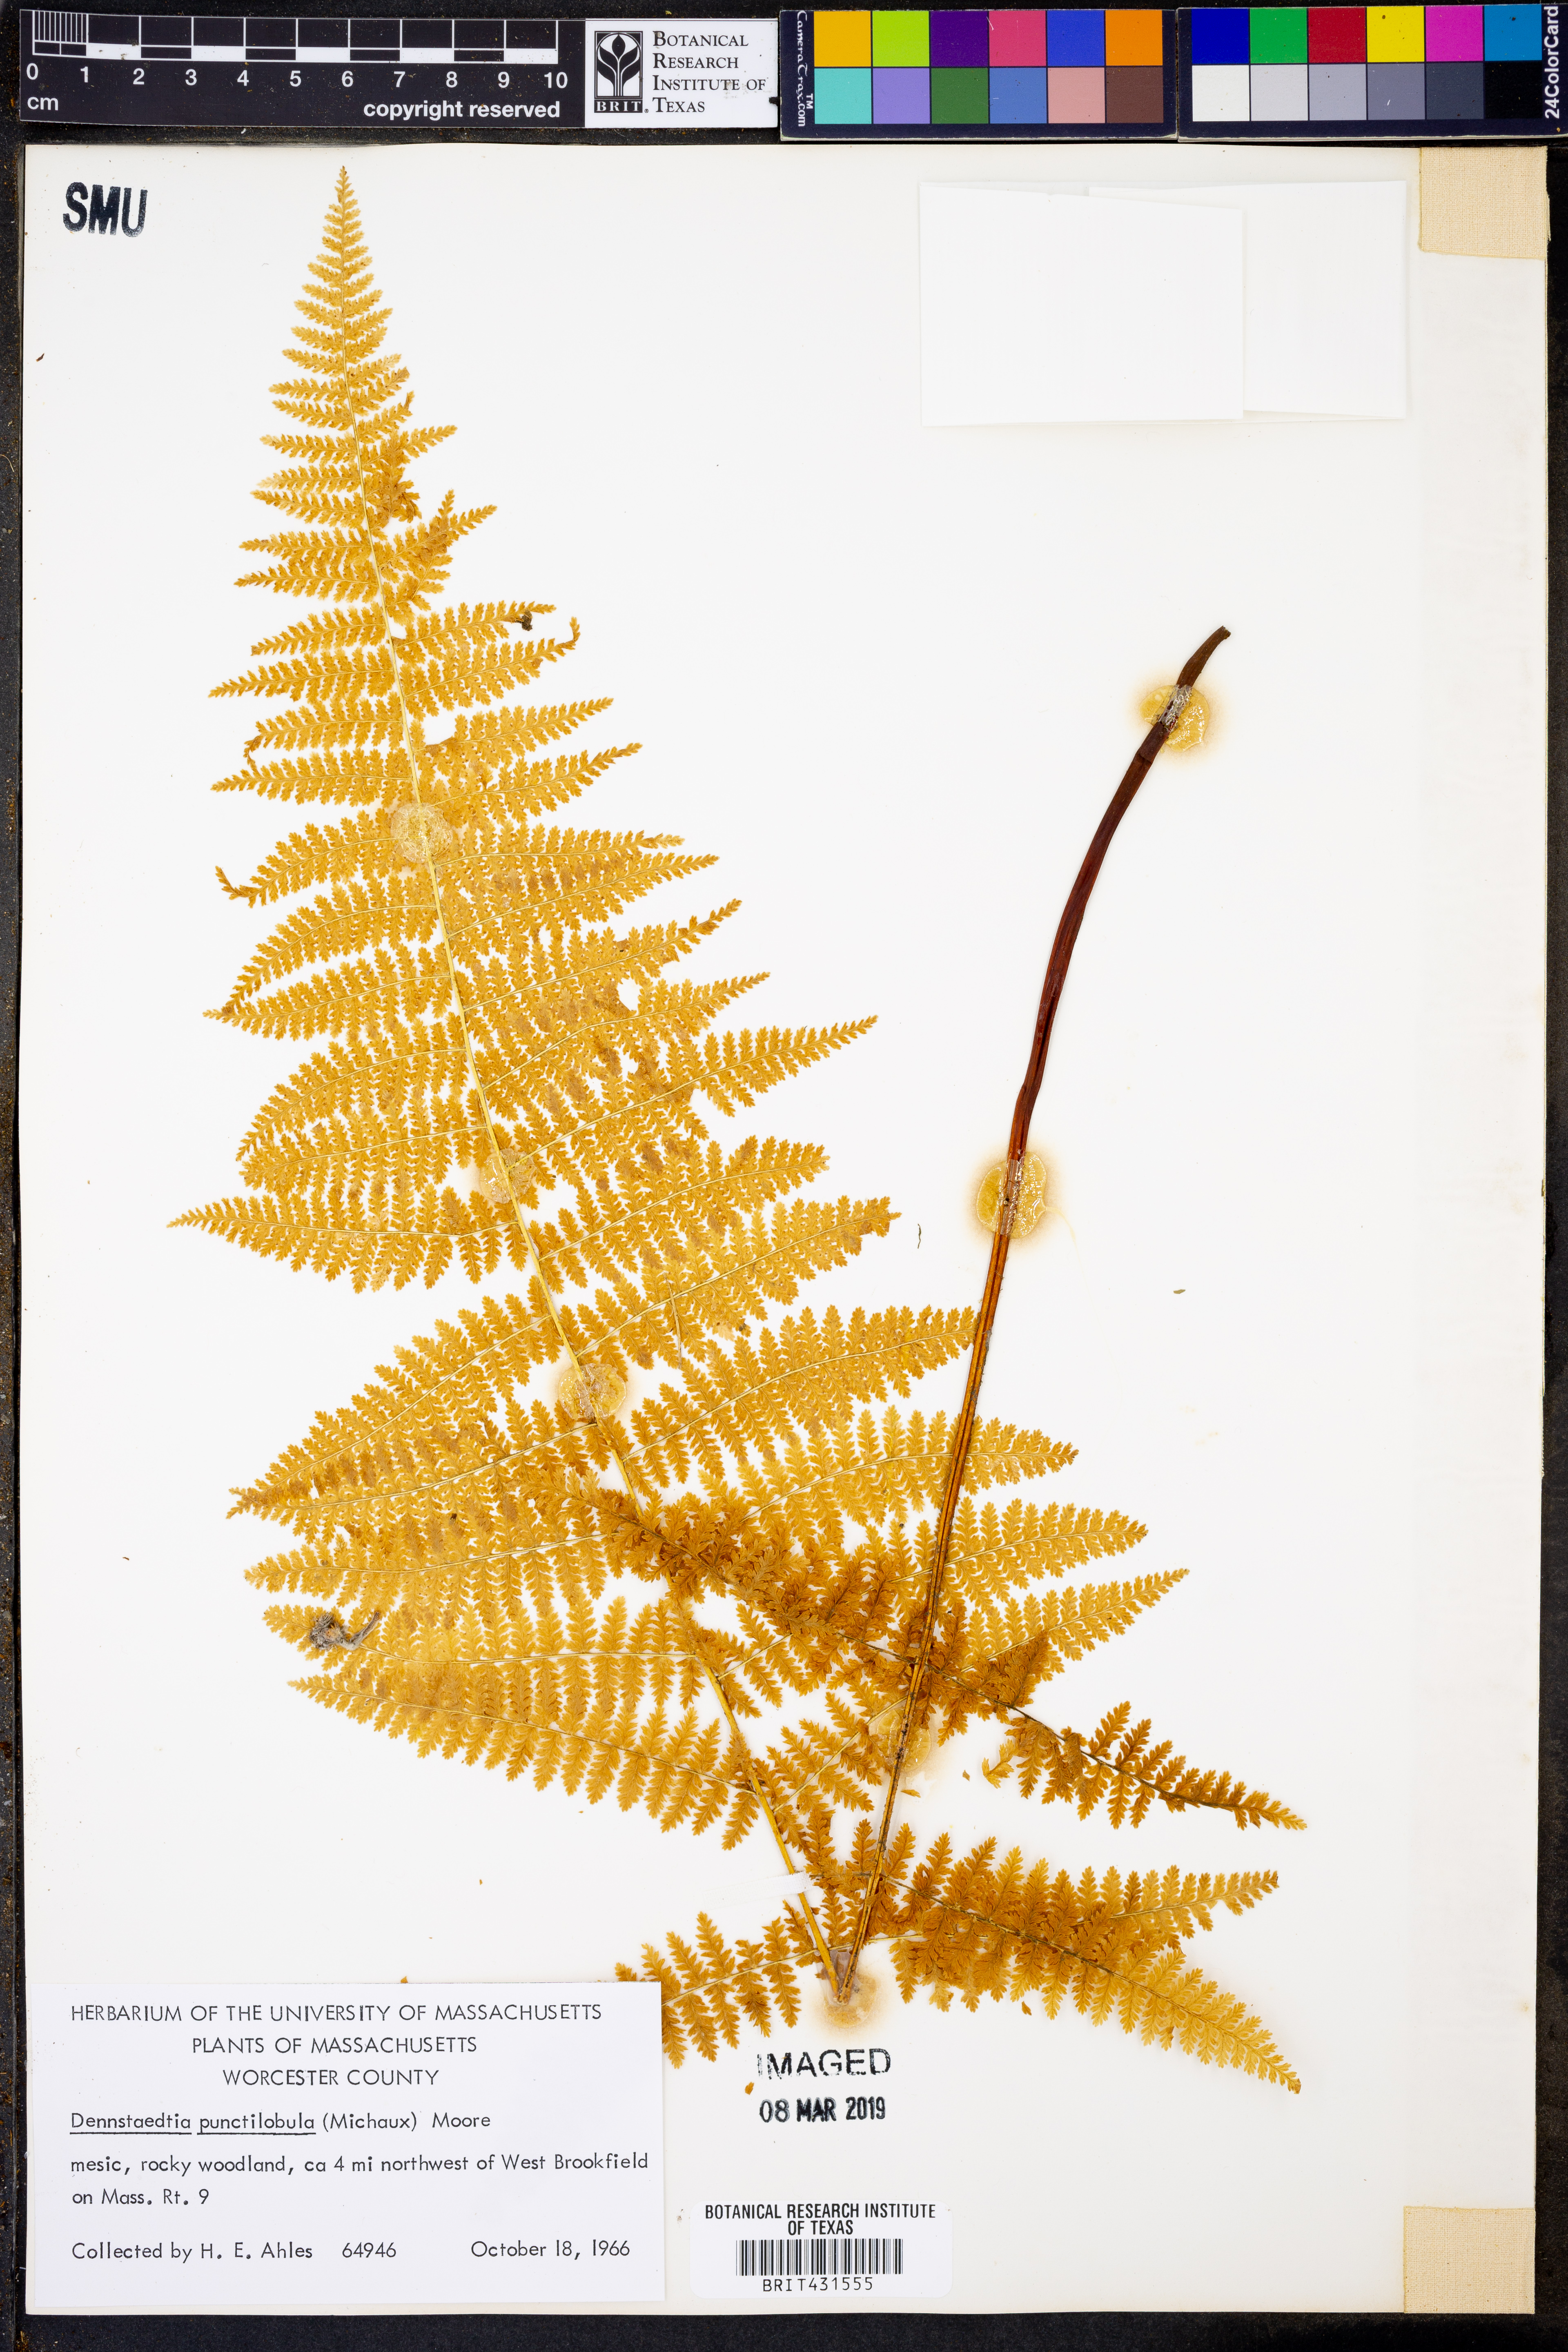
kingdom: Plantae
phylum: Tracheophyta
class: Polypodiopsida
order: Polypodiales
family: Dennstaedtiaceae
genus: Sitobolium
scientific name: Sitobolium punctilobum
